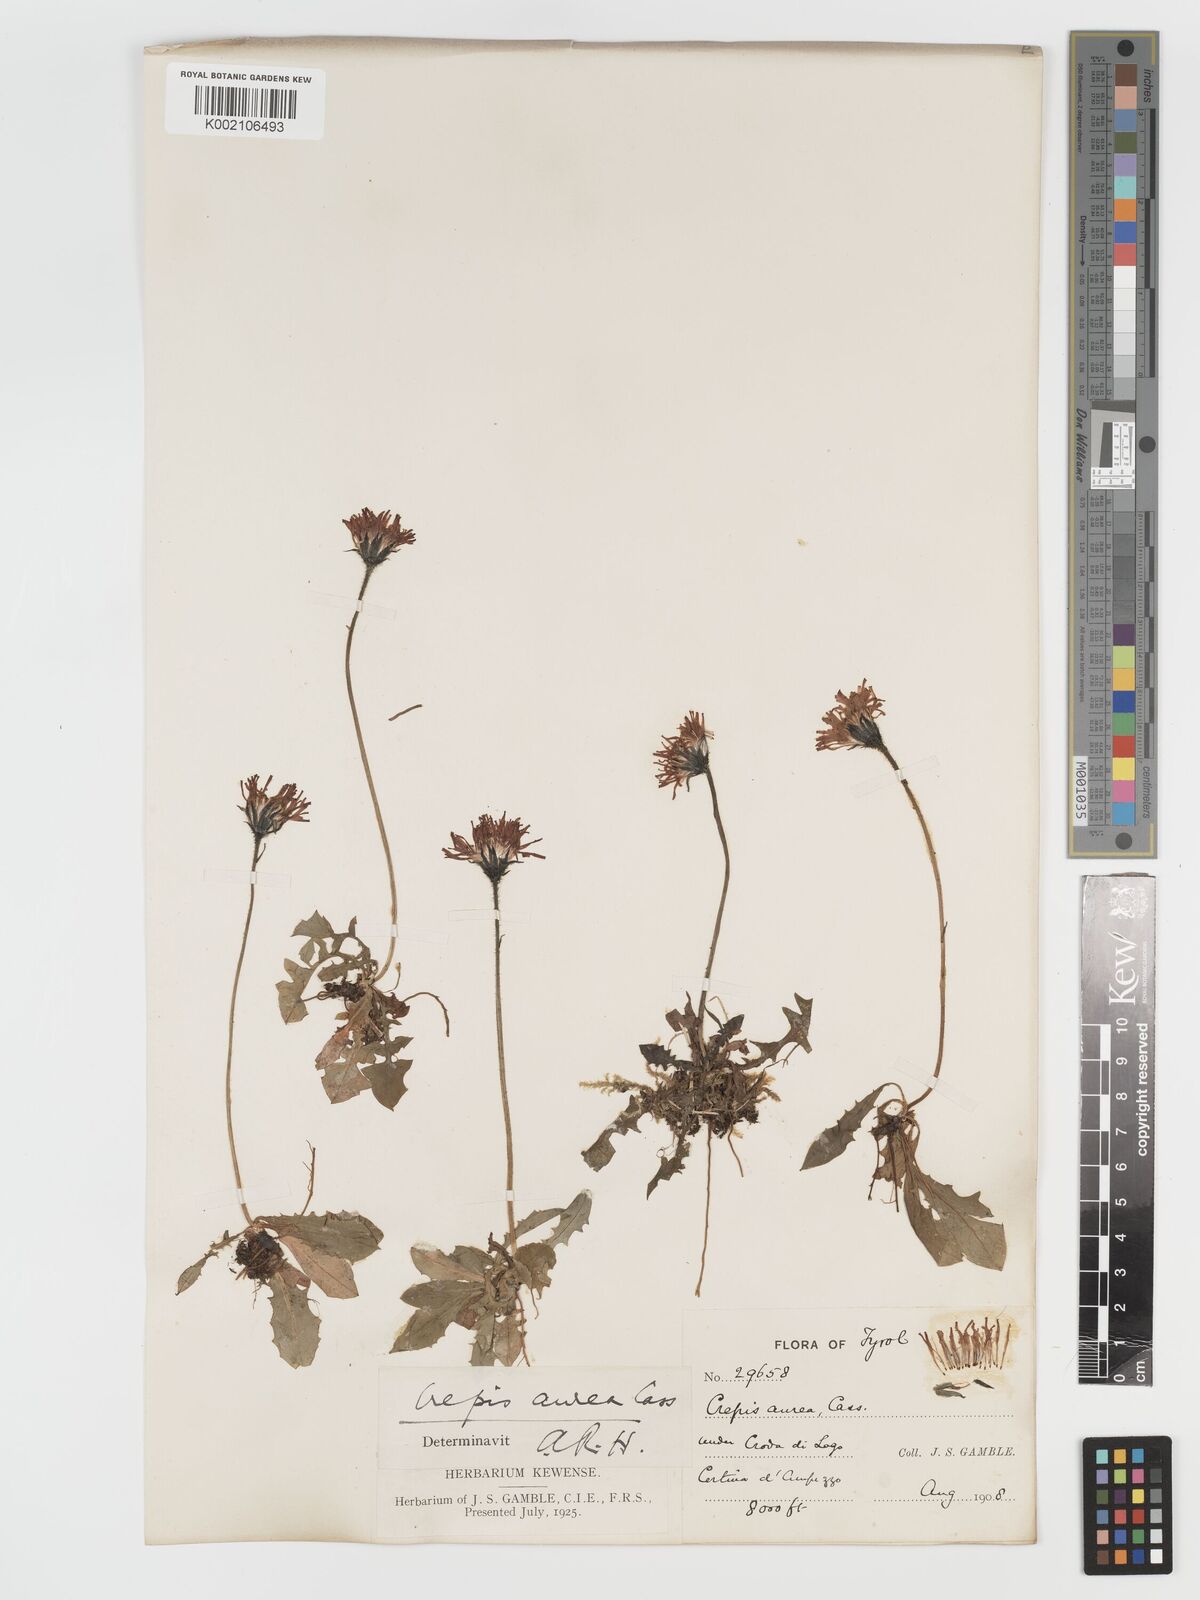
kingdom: Plantae
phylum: Tracheophyta
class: Magnoliopsida
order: Asterales
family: Asteraceae
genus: Crepis
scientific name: Crepis aurea
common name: Golden hawk's-beard
